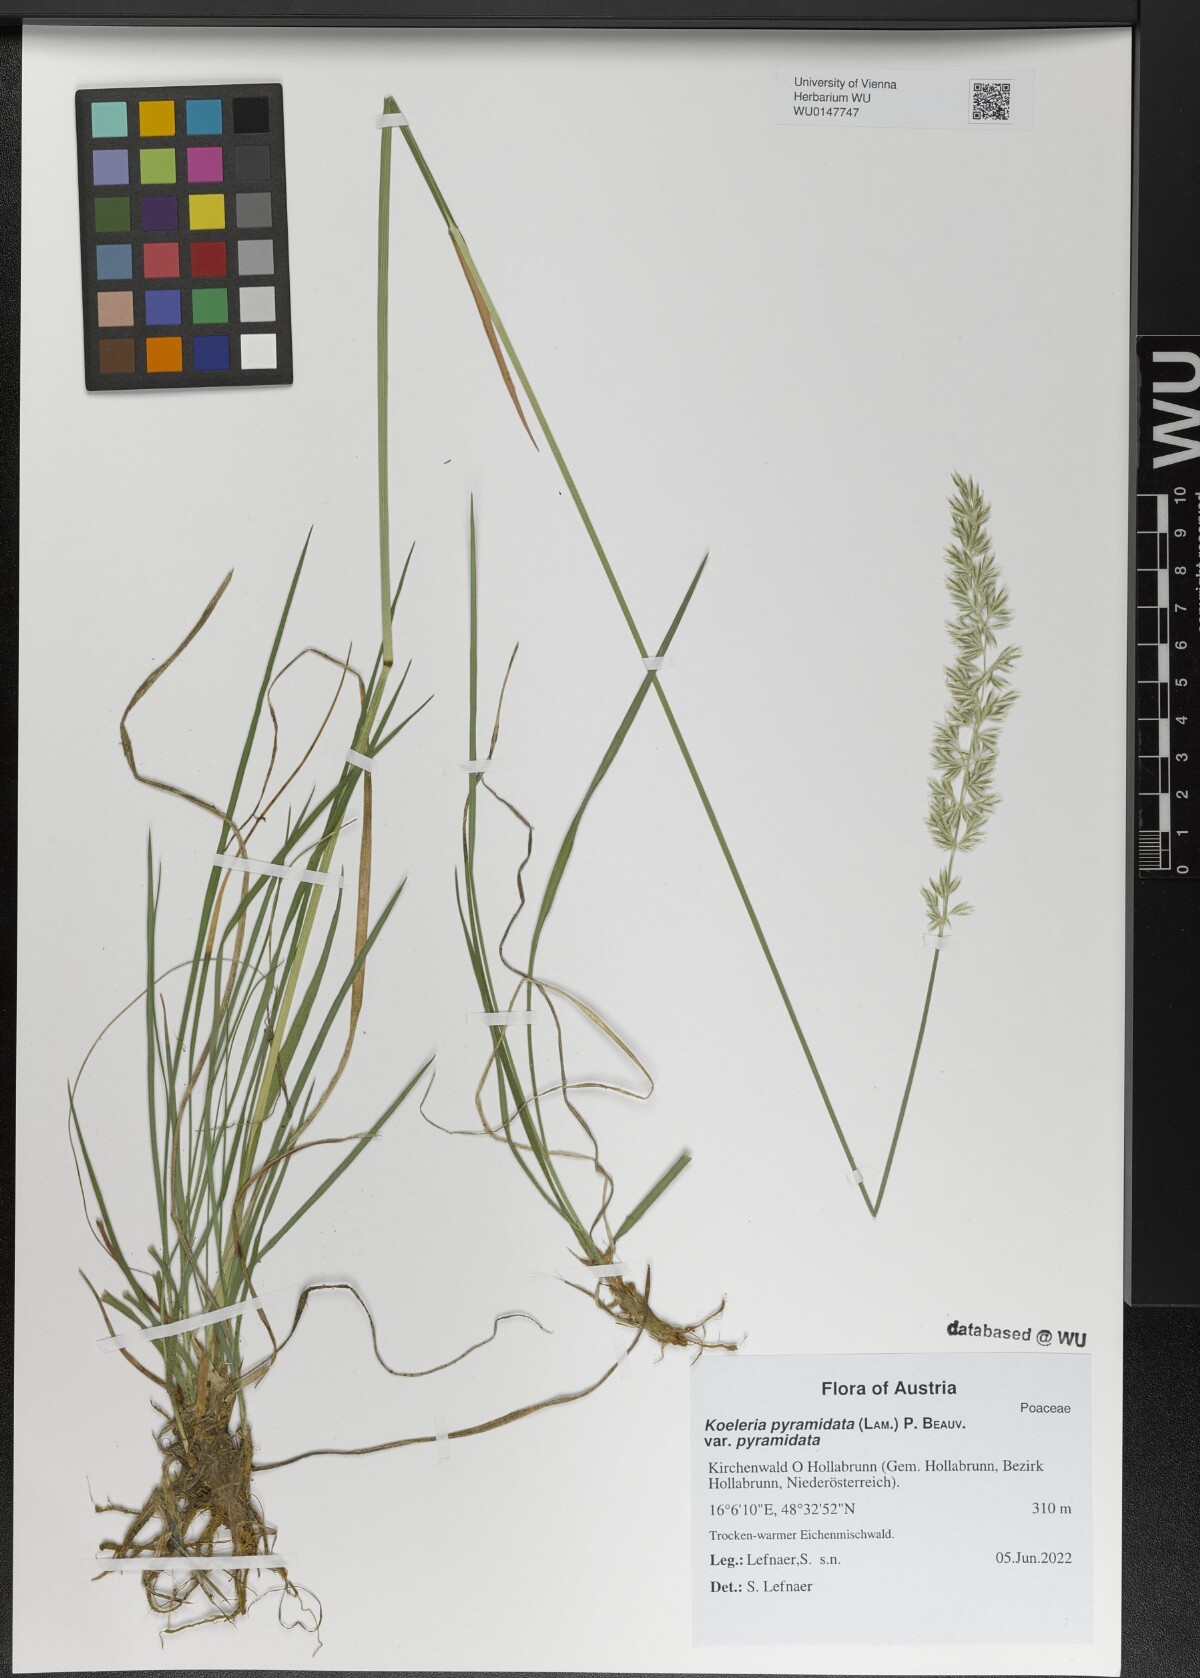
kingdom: Plantae
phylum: Tracheophyta
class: Liliopsida
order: Poales
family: Poaceae
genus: Koeleria
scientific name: Koeleria pyramidata
